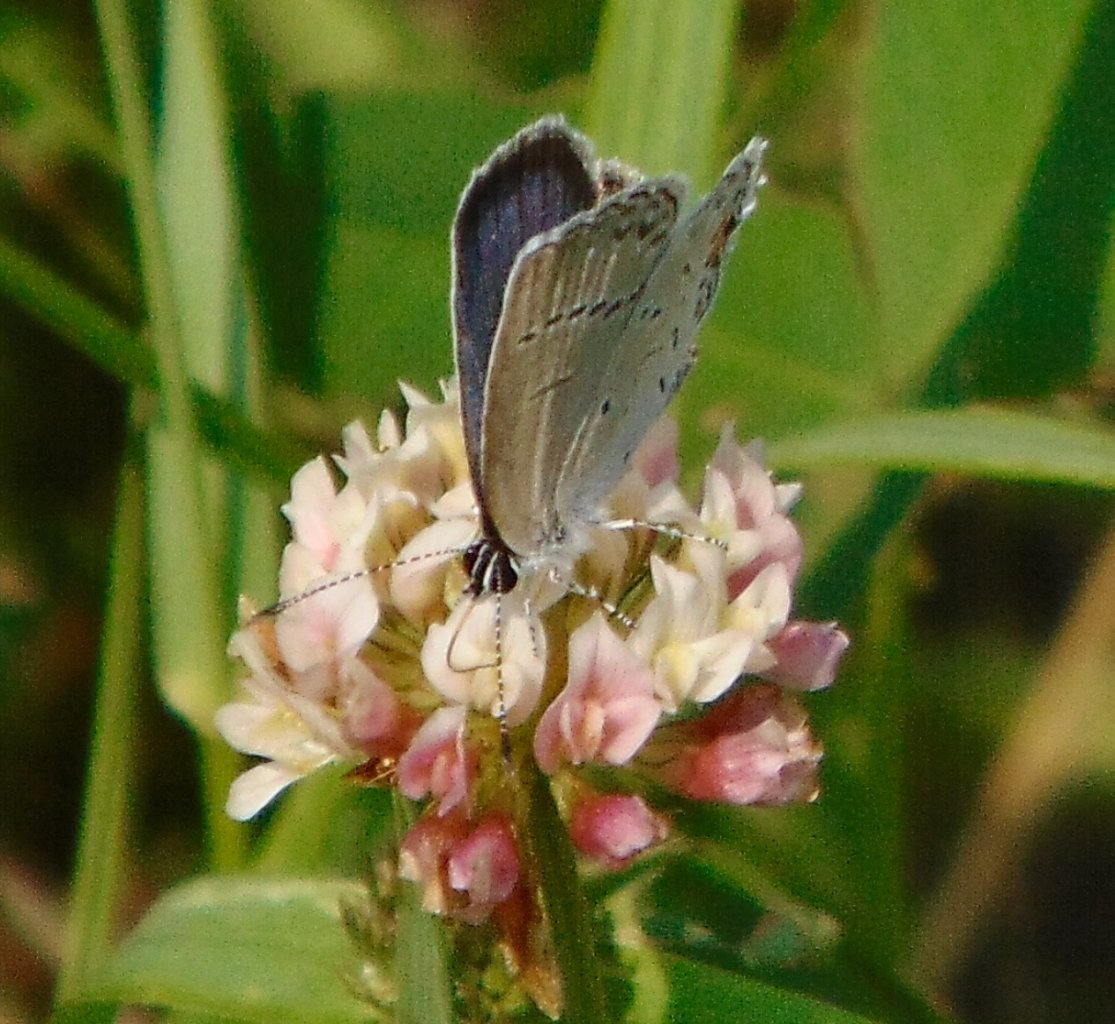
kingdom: Animalia
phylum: Arthropoda
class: Insecta
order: Lepidoptera
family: Lycaenidae
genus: Elkalyce
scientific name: Elkalyce comyntas
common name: Eastern Tailed-Blue
